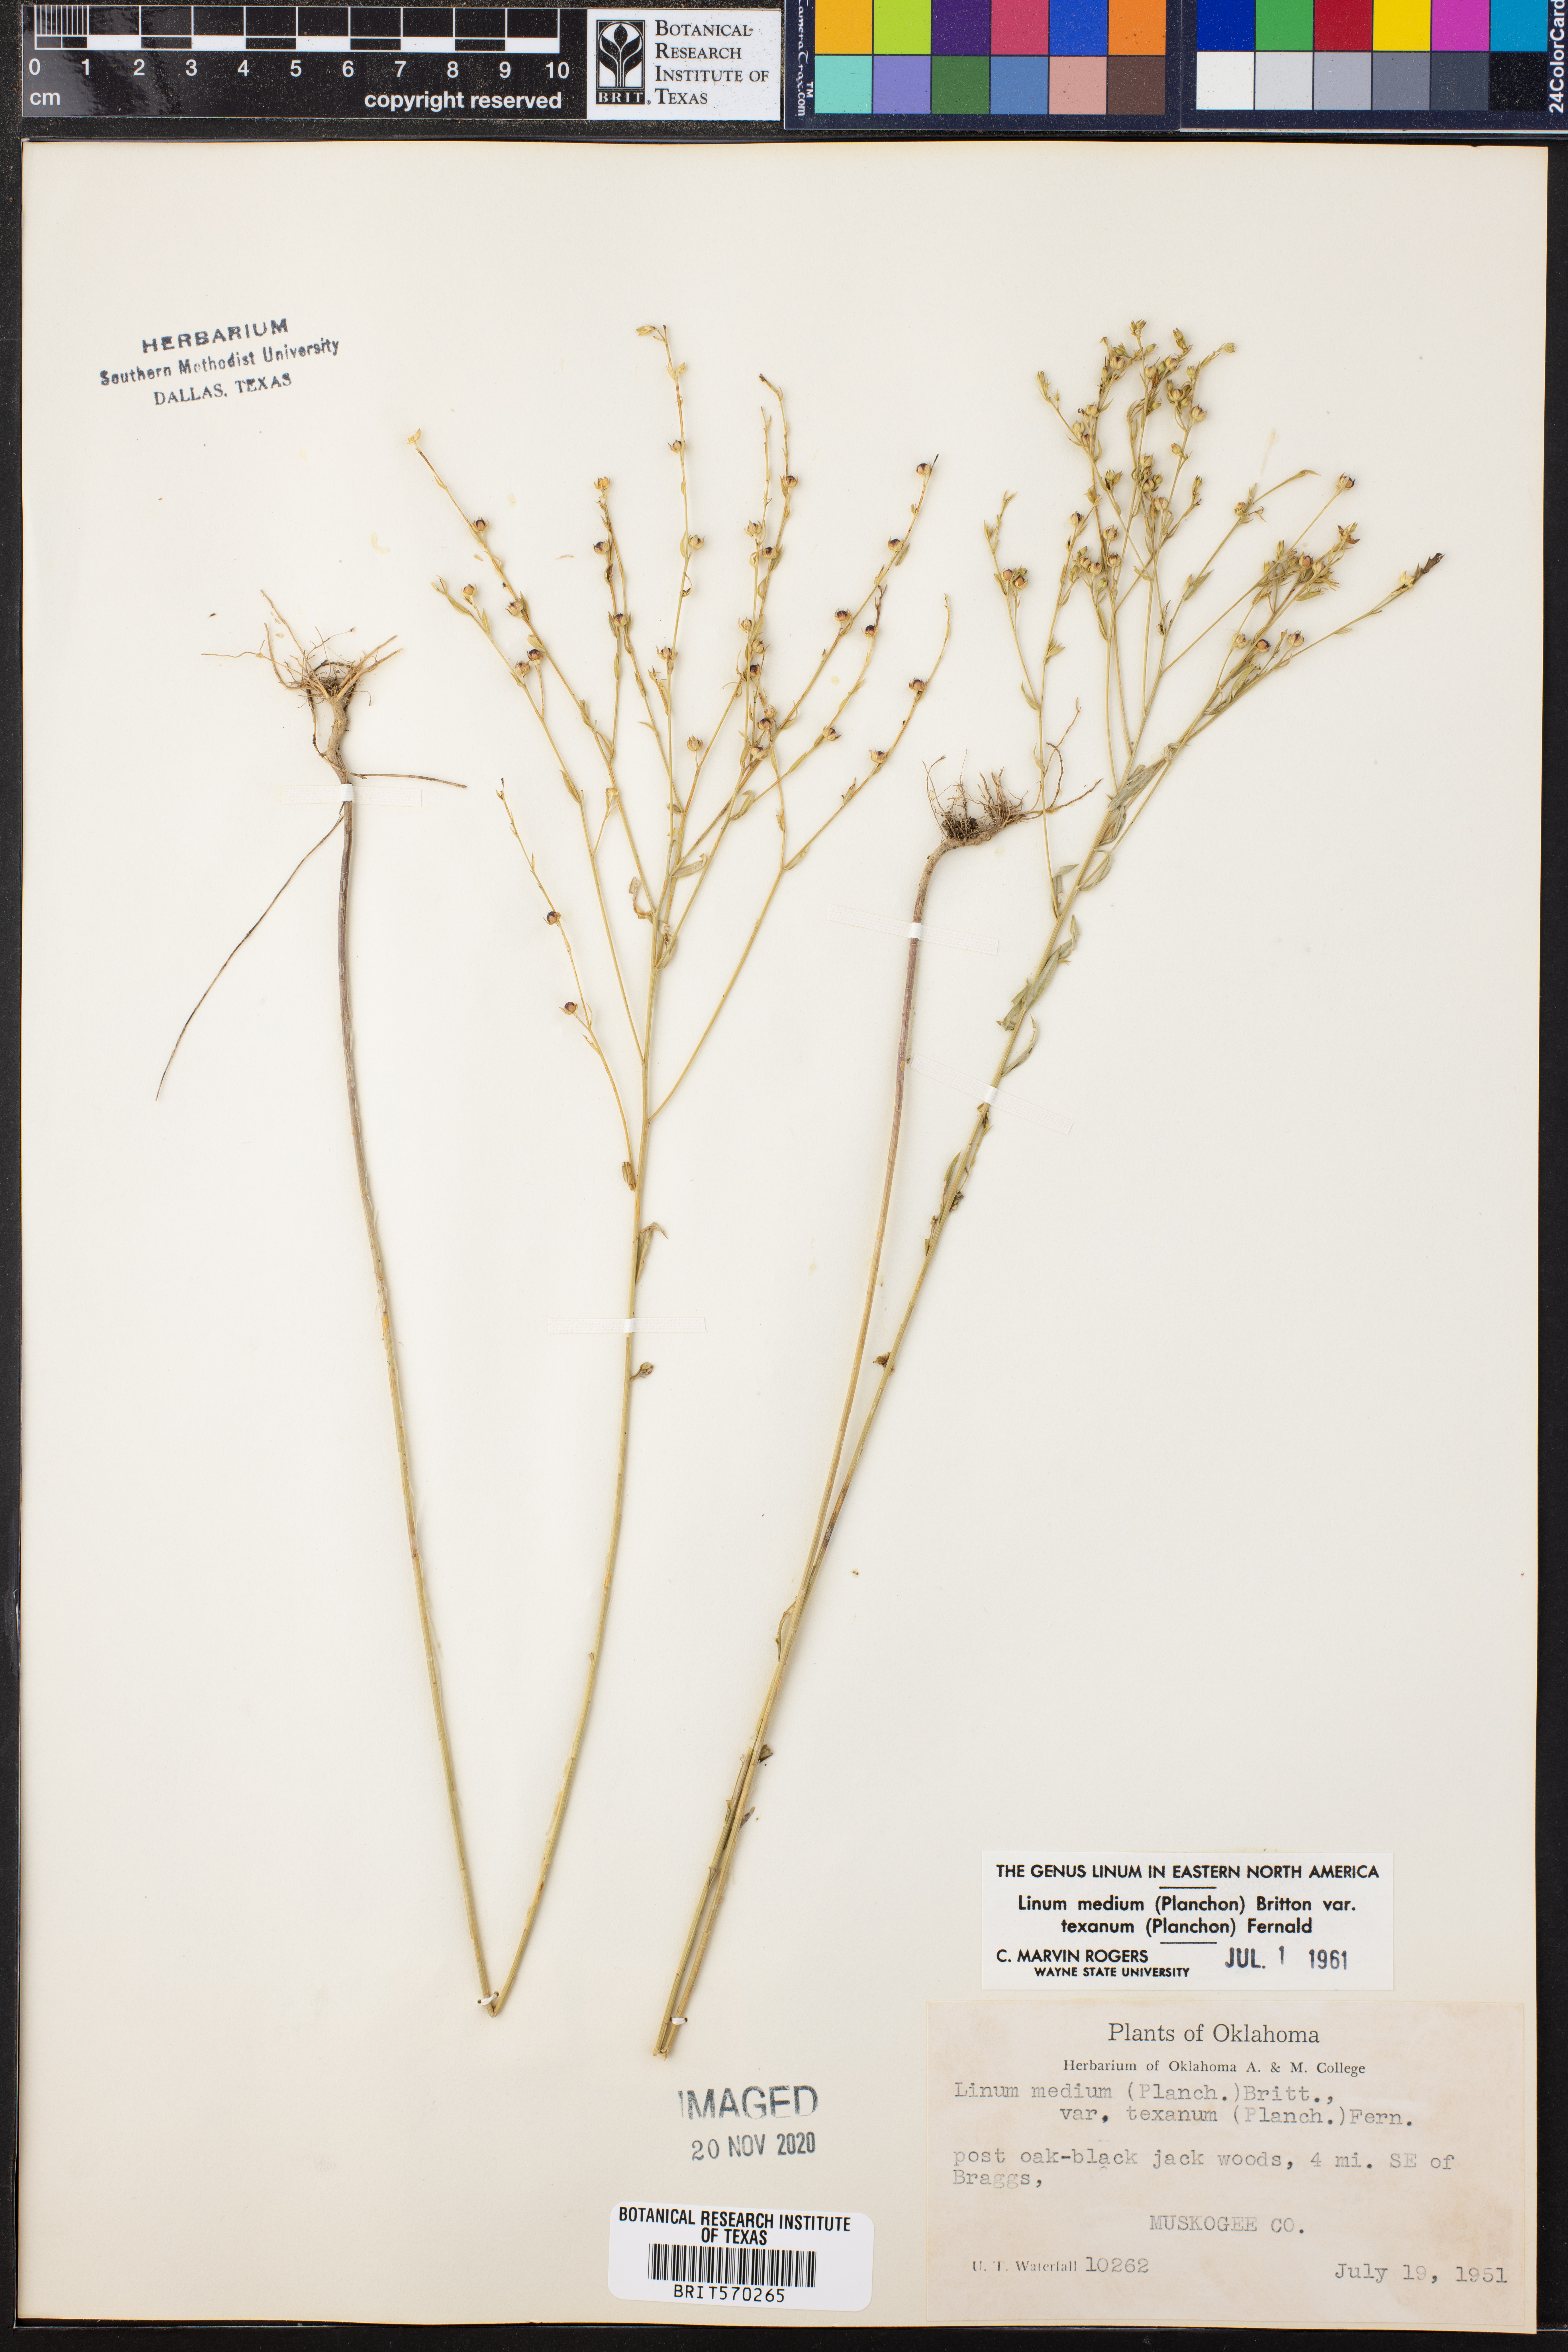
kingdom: Plantae
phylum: Tracheophyta
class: Magnoliopsida
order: Malpighiales
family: Linaceae
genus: Linum
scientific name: Linum medium
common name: Stiff yellow flax
